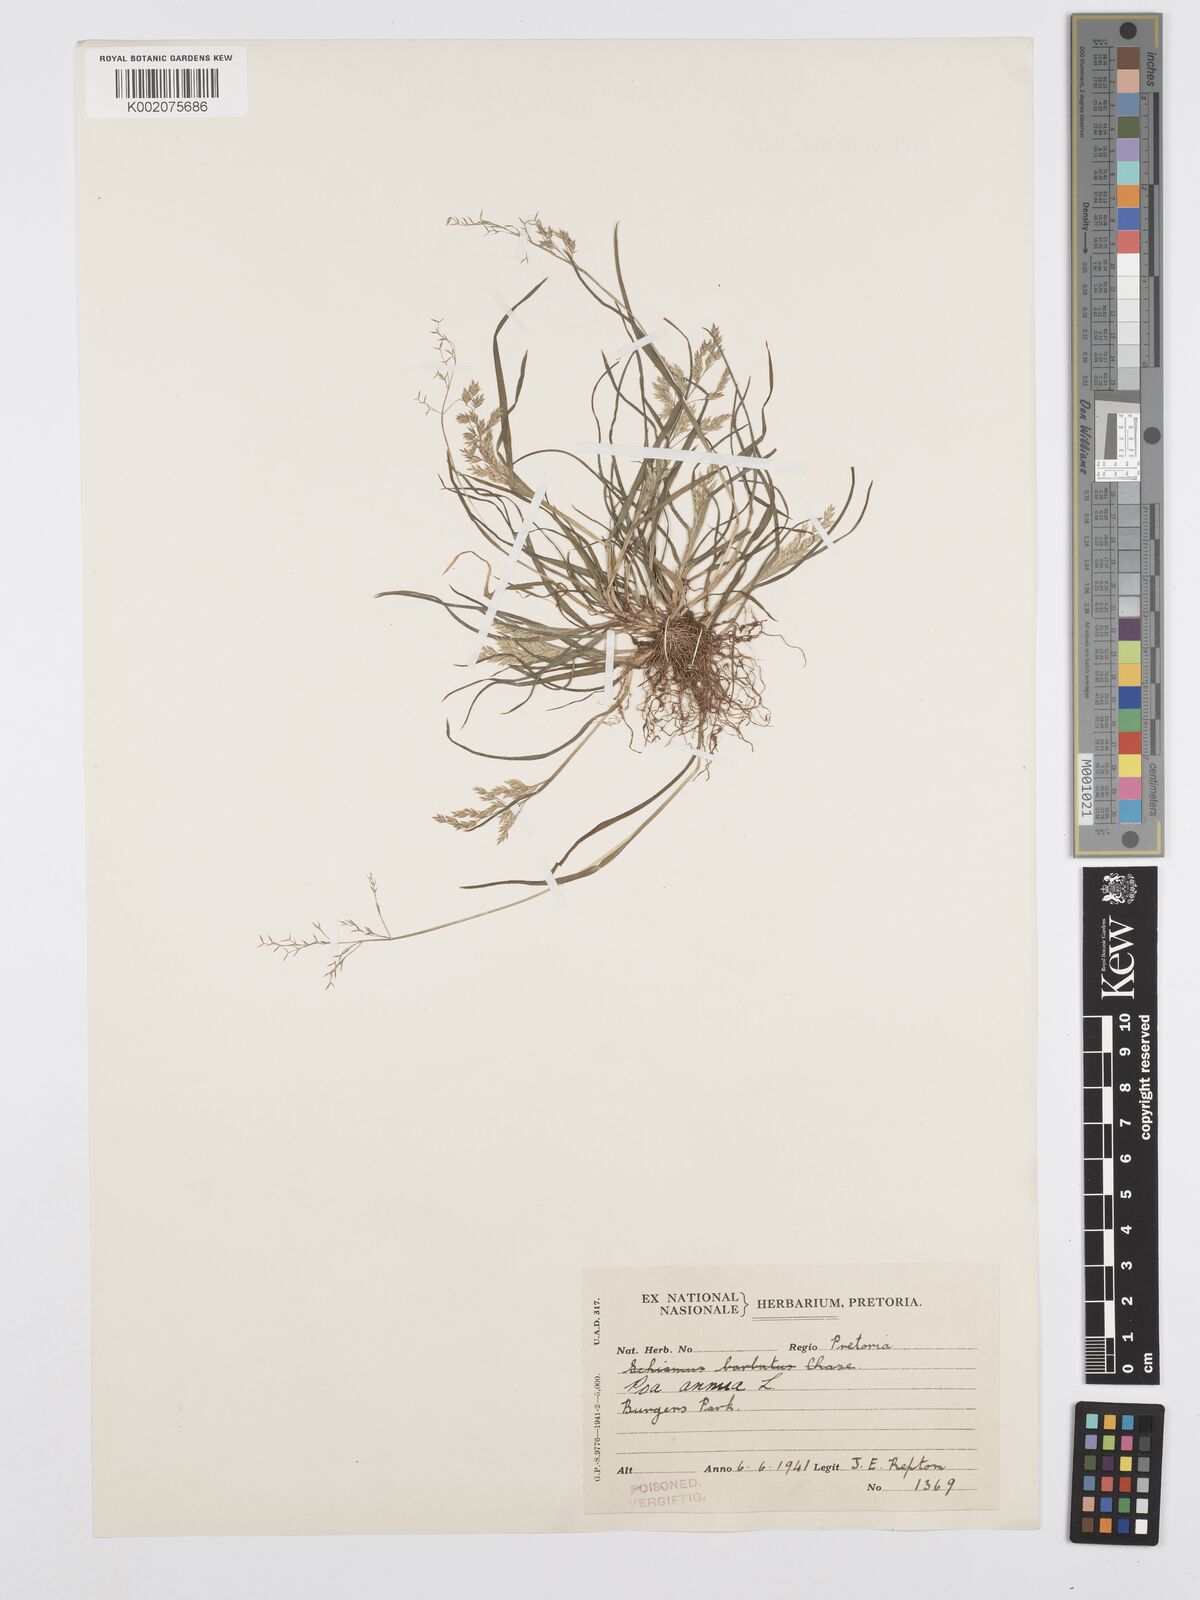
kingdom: Plantae
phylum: Tracheophyta
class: Liliopsida
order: Poales
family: Poaceae
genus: Poa
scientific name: Poa annua
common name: Annual bluegrass
